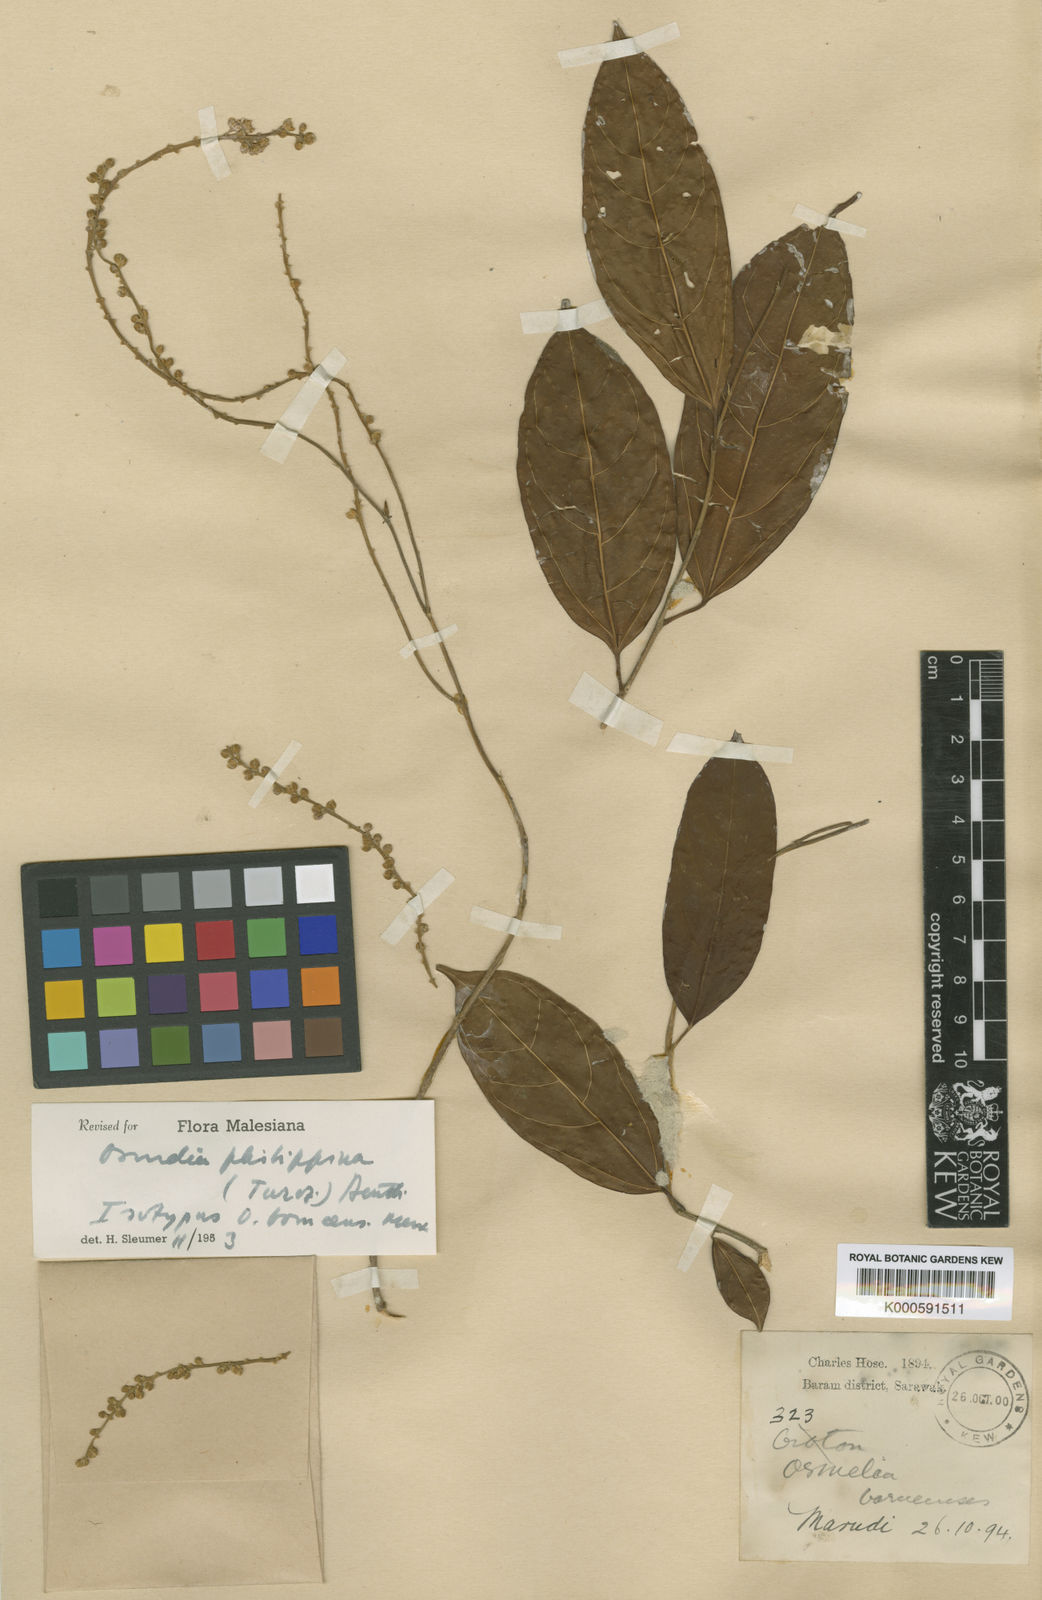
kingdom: Plantae
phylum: Tracheophyta
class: Magnoliopsida
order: Malpighiales
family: Salicaceae
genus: Osmelia
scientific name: Osmelia
